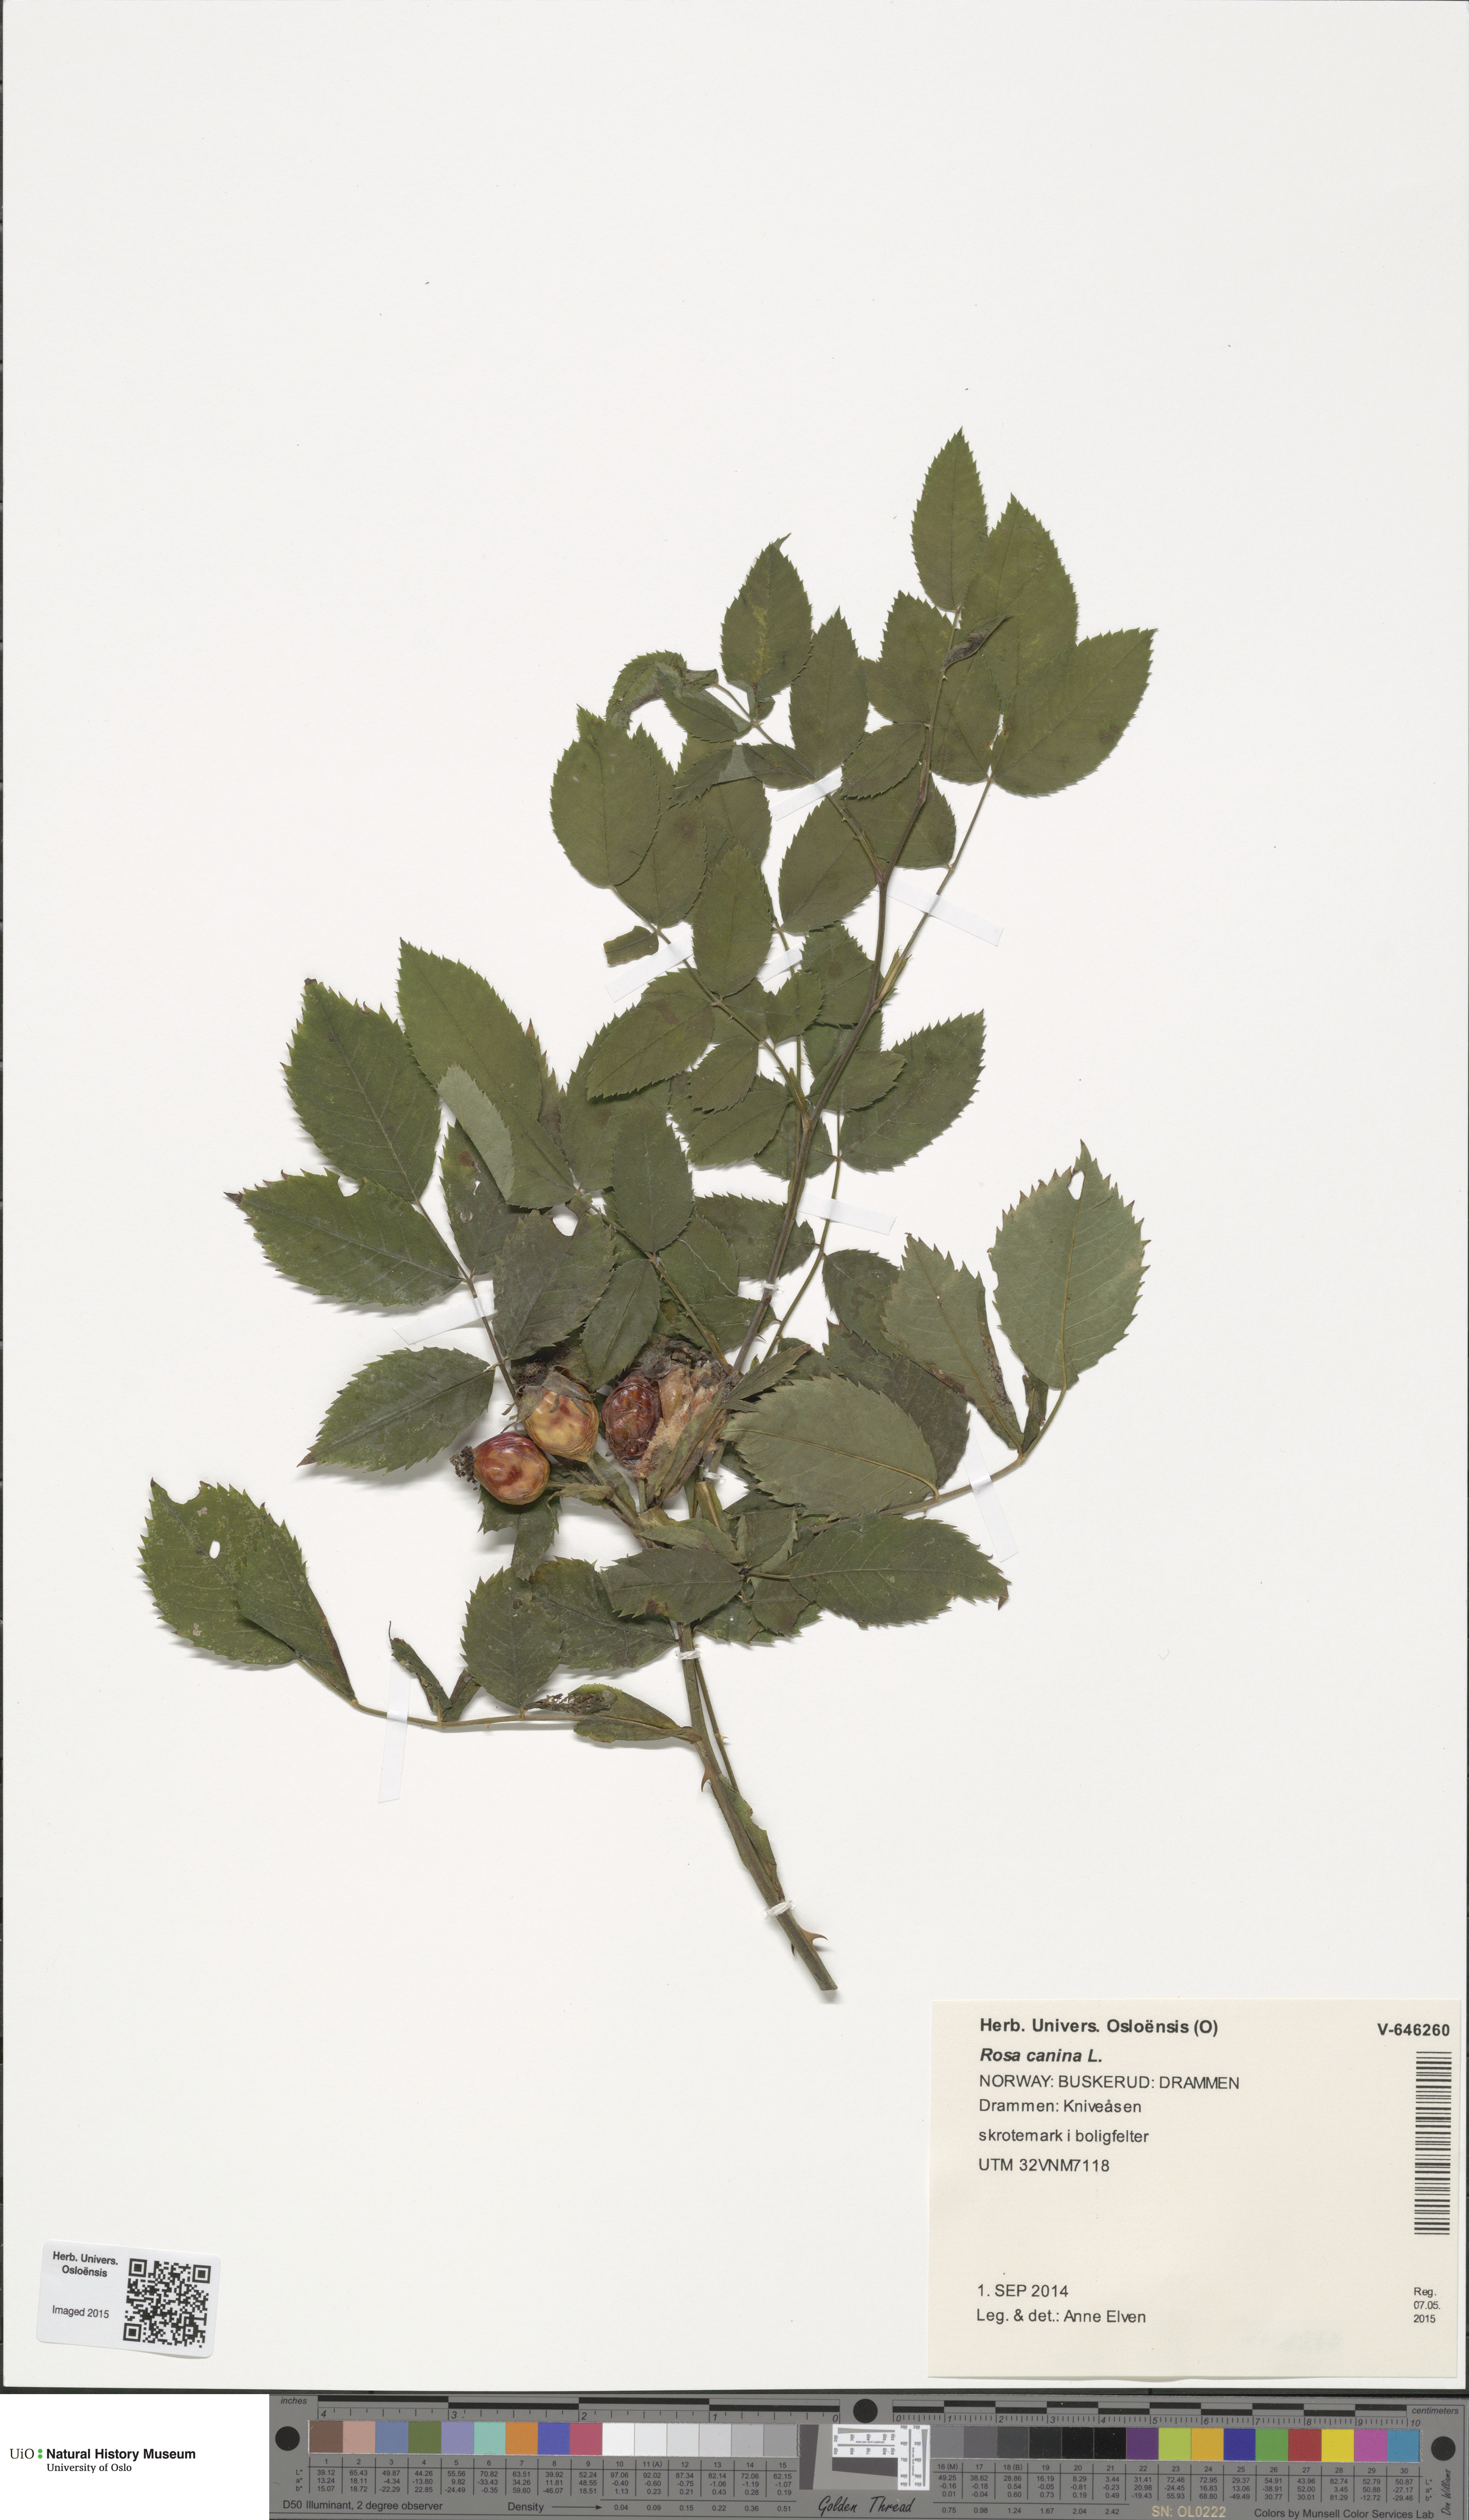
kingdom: Plantae
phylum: Tracheophyta
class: Magnoliopsida
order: Rosales
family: Rosaceae
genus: Rosa
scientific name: Rosa canina
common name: Dog rose
